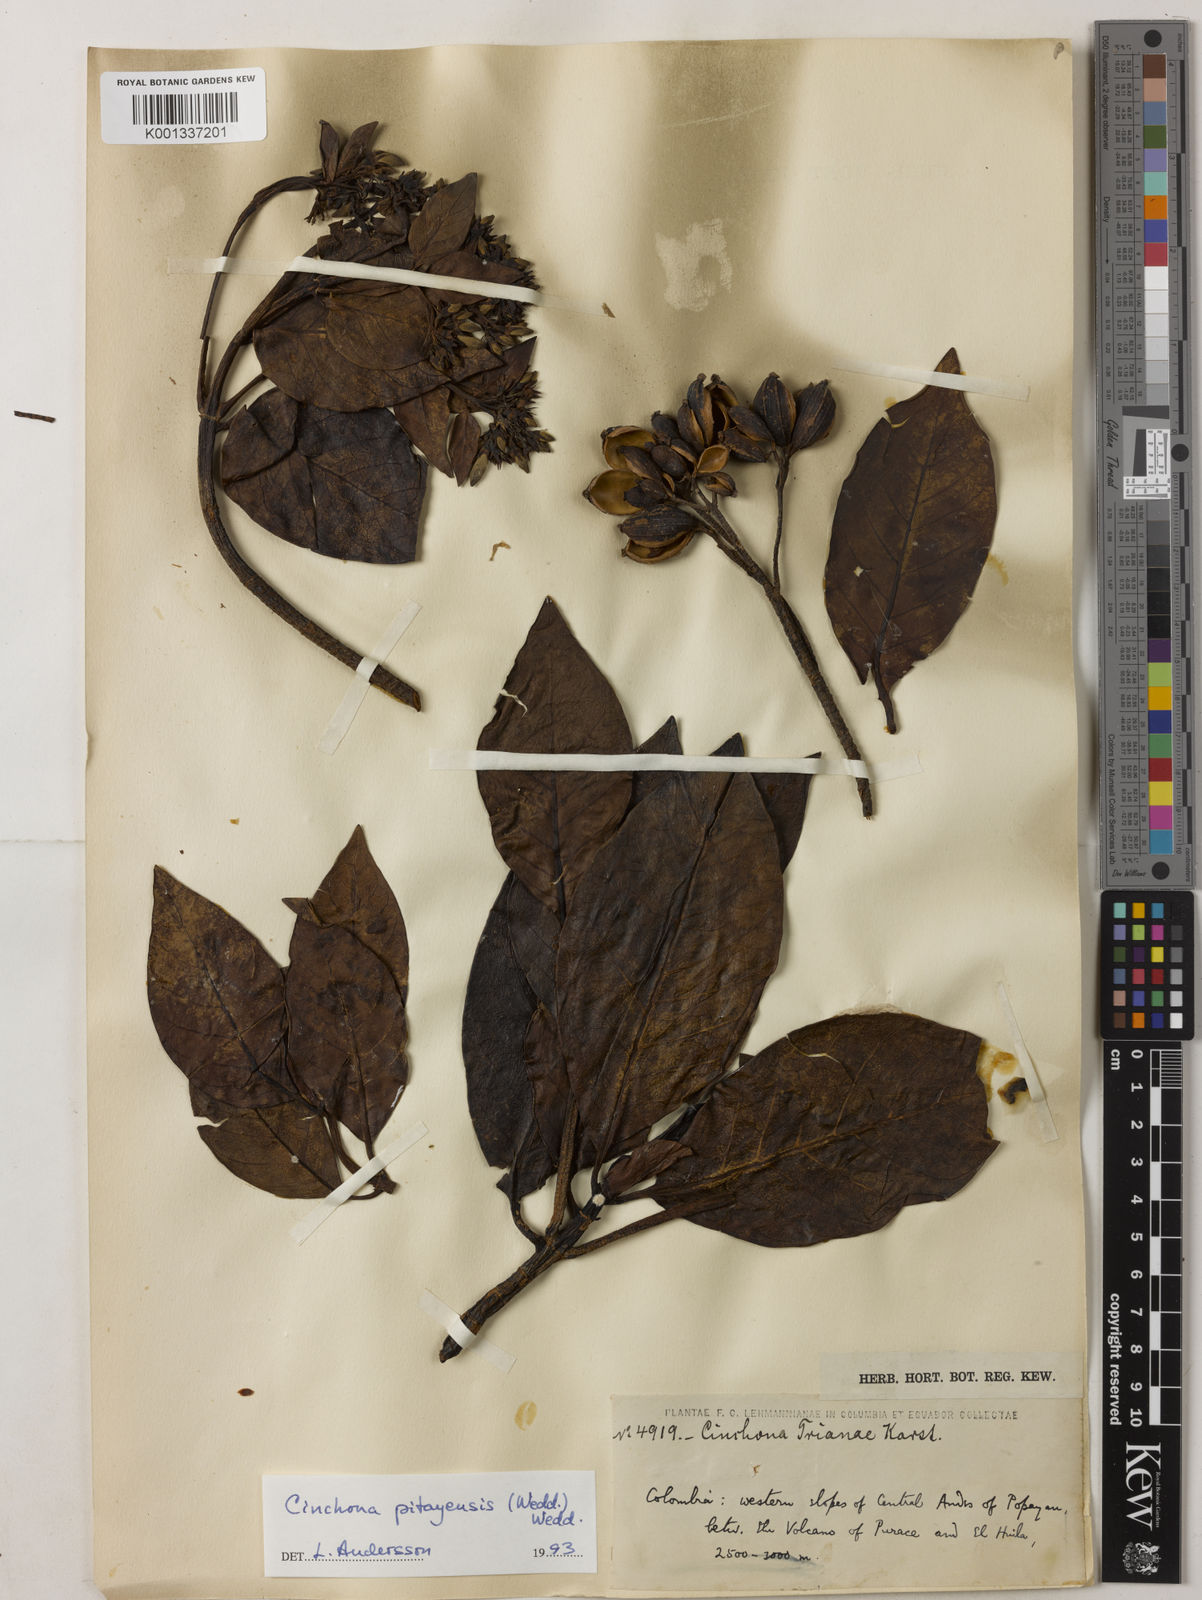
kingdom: Plantae
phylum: Tracheophyta
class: Magnoliopsida
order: Gentianales
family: Rubiaceae
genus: Cinchona
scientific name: Cinchona pitayensis
